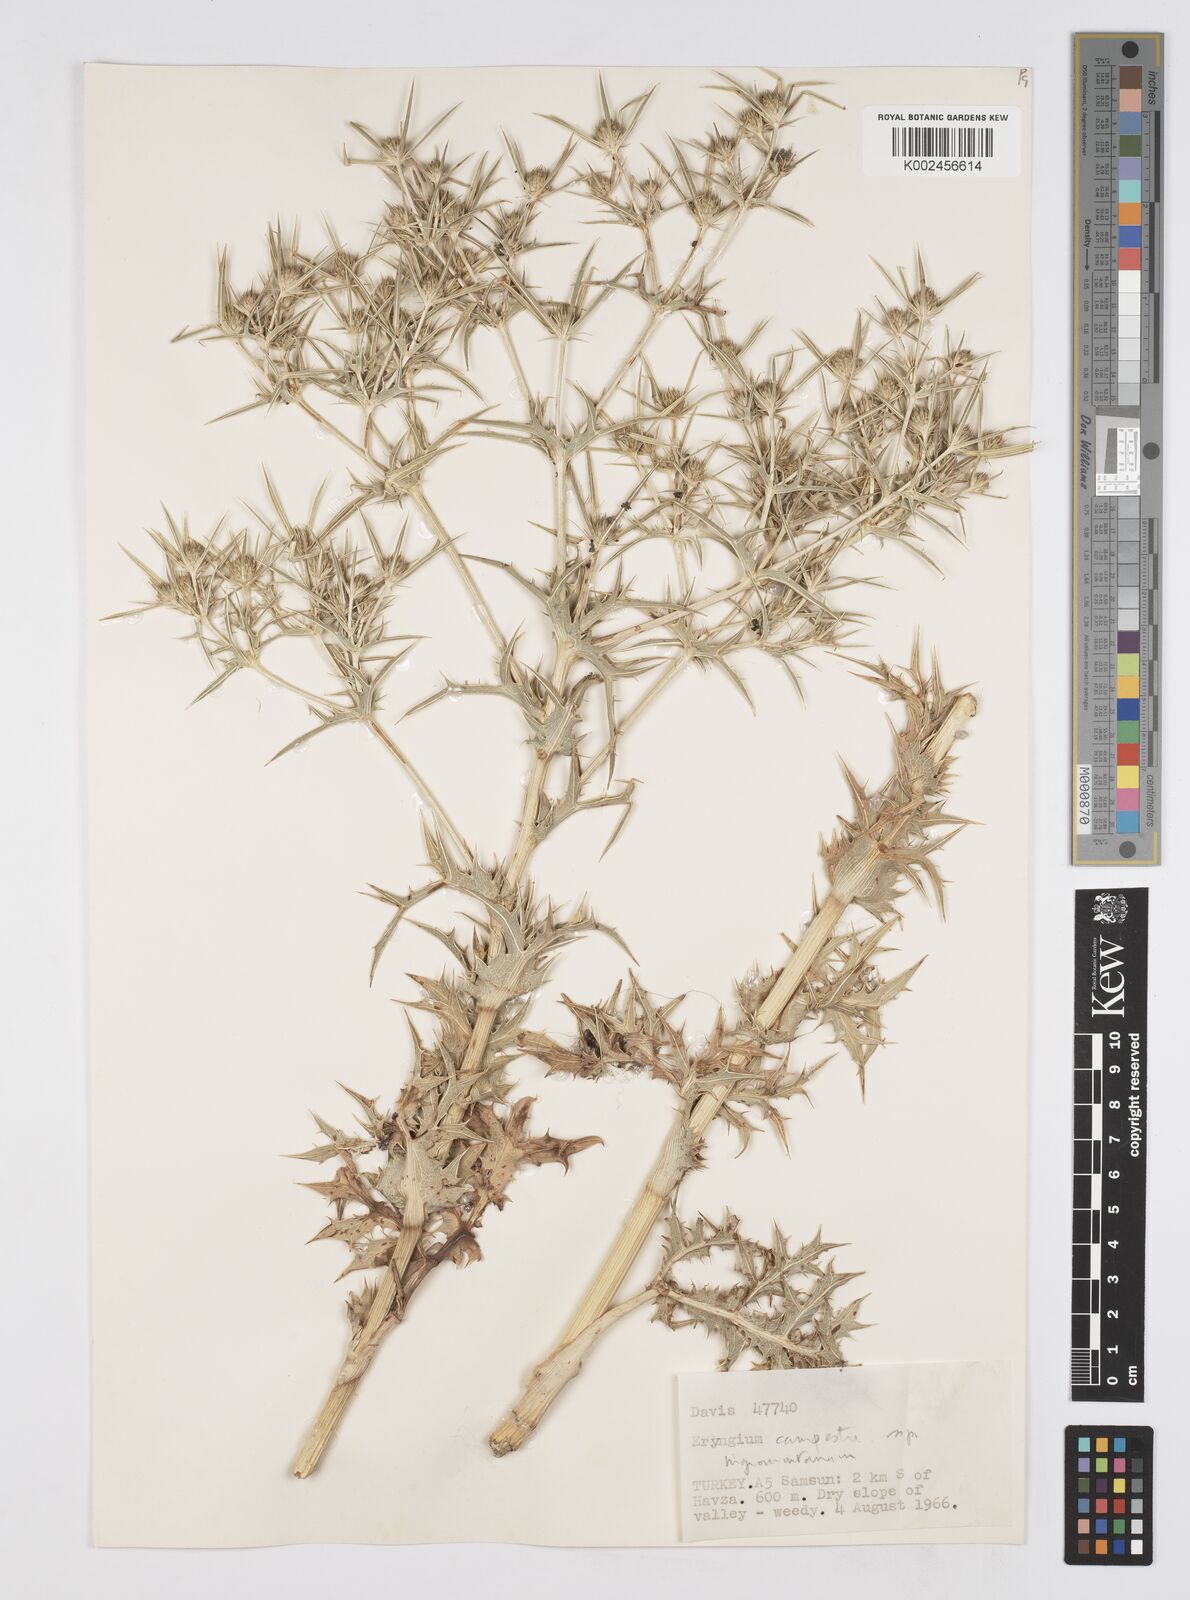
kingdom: Plantae
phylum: Tracheophyta
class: Magnoliopsida
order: Apiales
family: Apiaceae
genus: Eryngium
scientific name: Eryngium campestre
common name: Field eryngo
